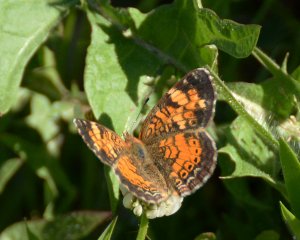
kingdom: Animalia
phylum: Arthropoda
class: Insecta
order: Lepidoptera
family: Nymphalidae
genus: Phyciodes
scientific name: Phyciodes tharos
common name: Northern Crescent
